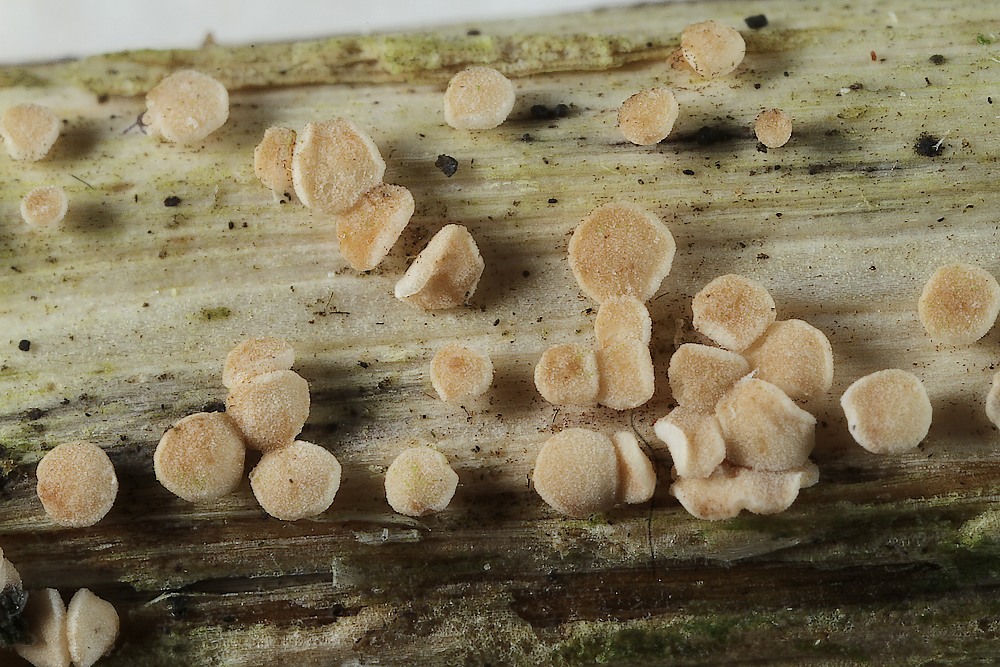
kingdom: Fungi
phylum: Ascomycota
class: Leotiomycetes
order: Helotiales
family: Pezizellaceae
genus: Calycina
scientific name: Calycina herbarum
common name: elfenbens-gulskive
